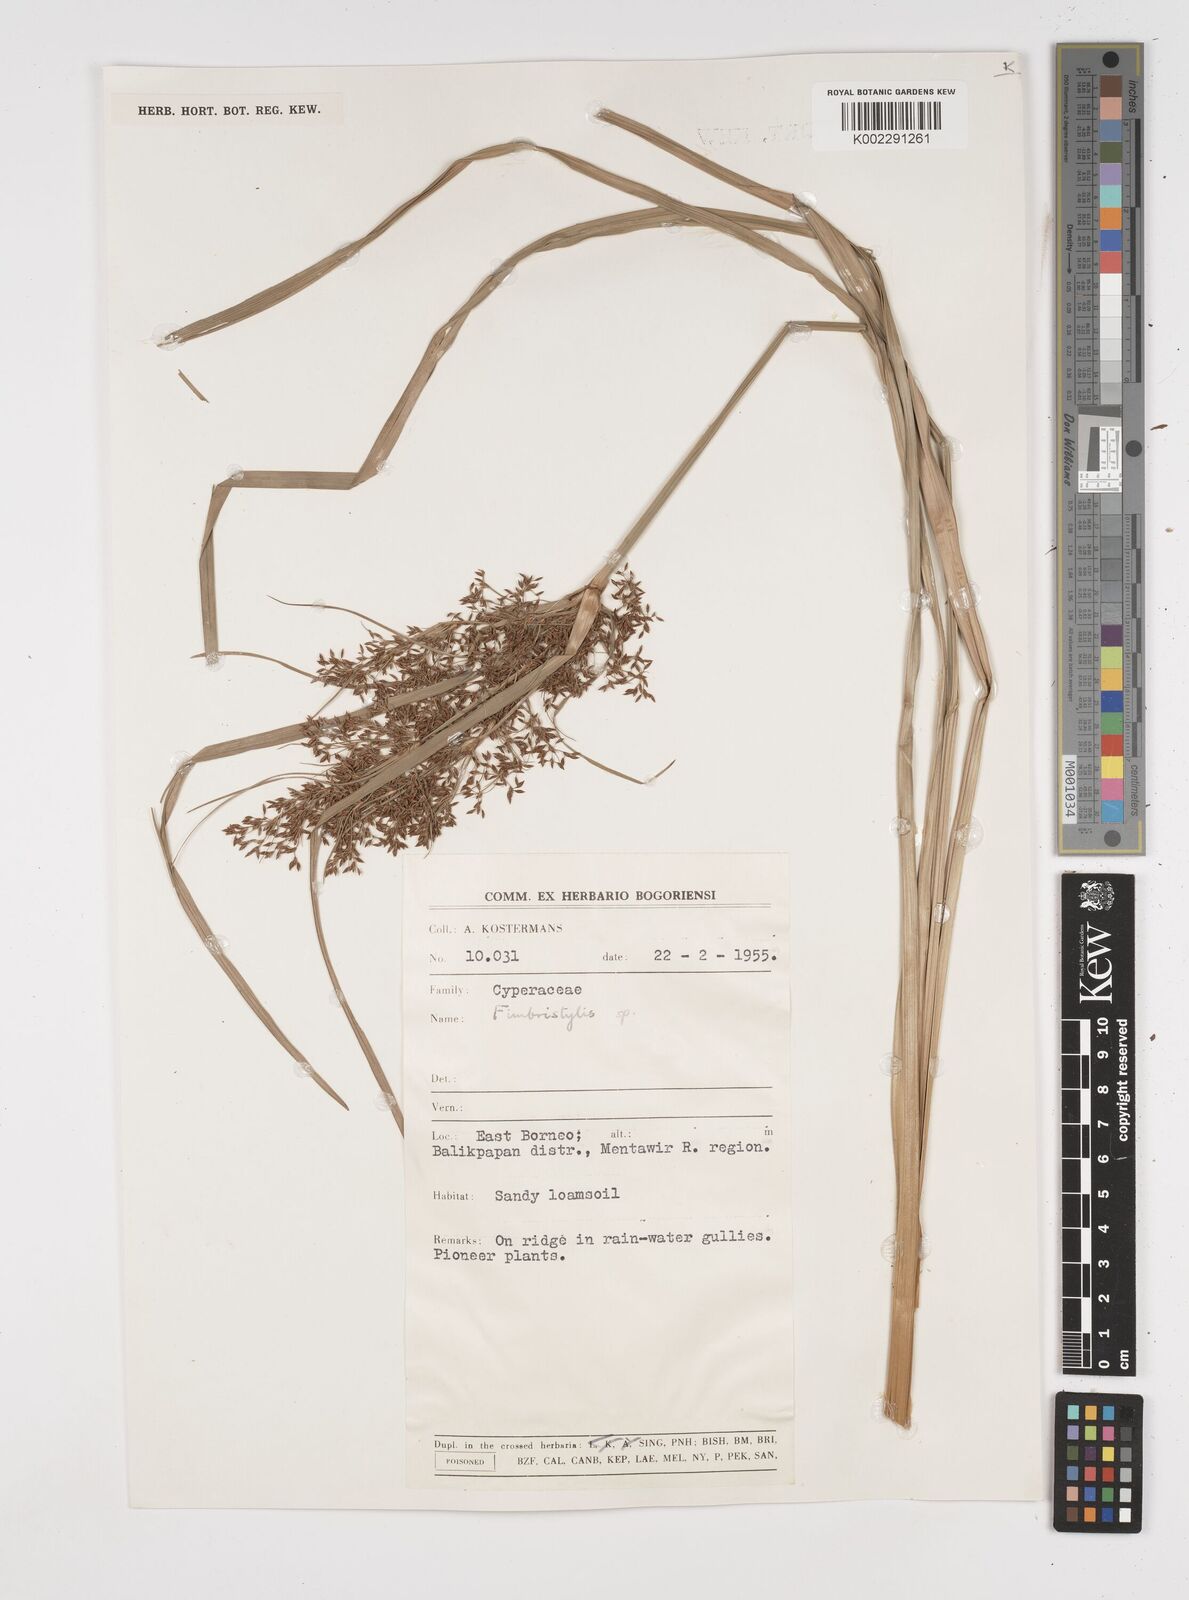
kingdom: Plantae
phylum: Tracheophyta
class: Liliopsida
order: Poales
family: Cyperaceae
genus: Fimbristylis
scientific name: Fimbristylis
